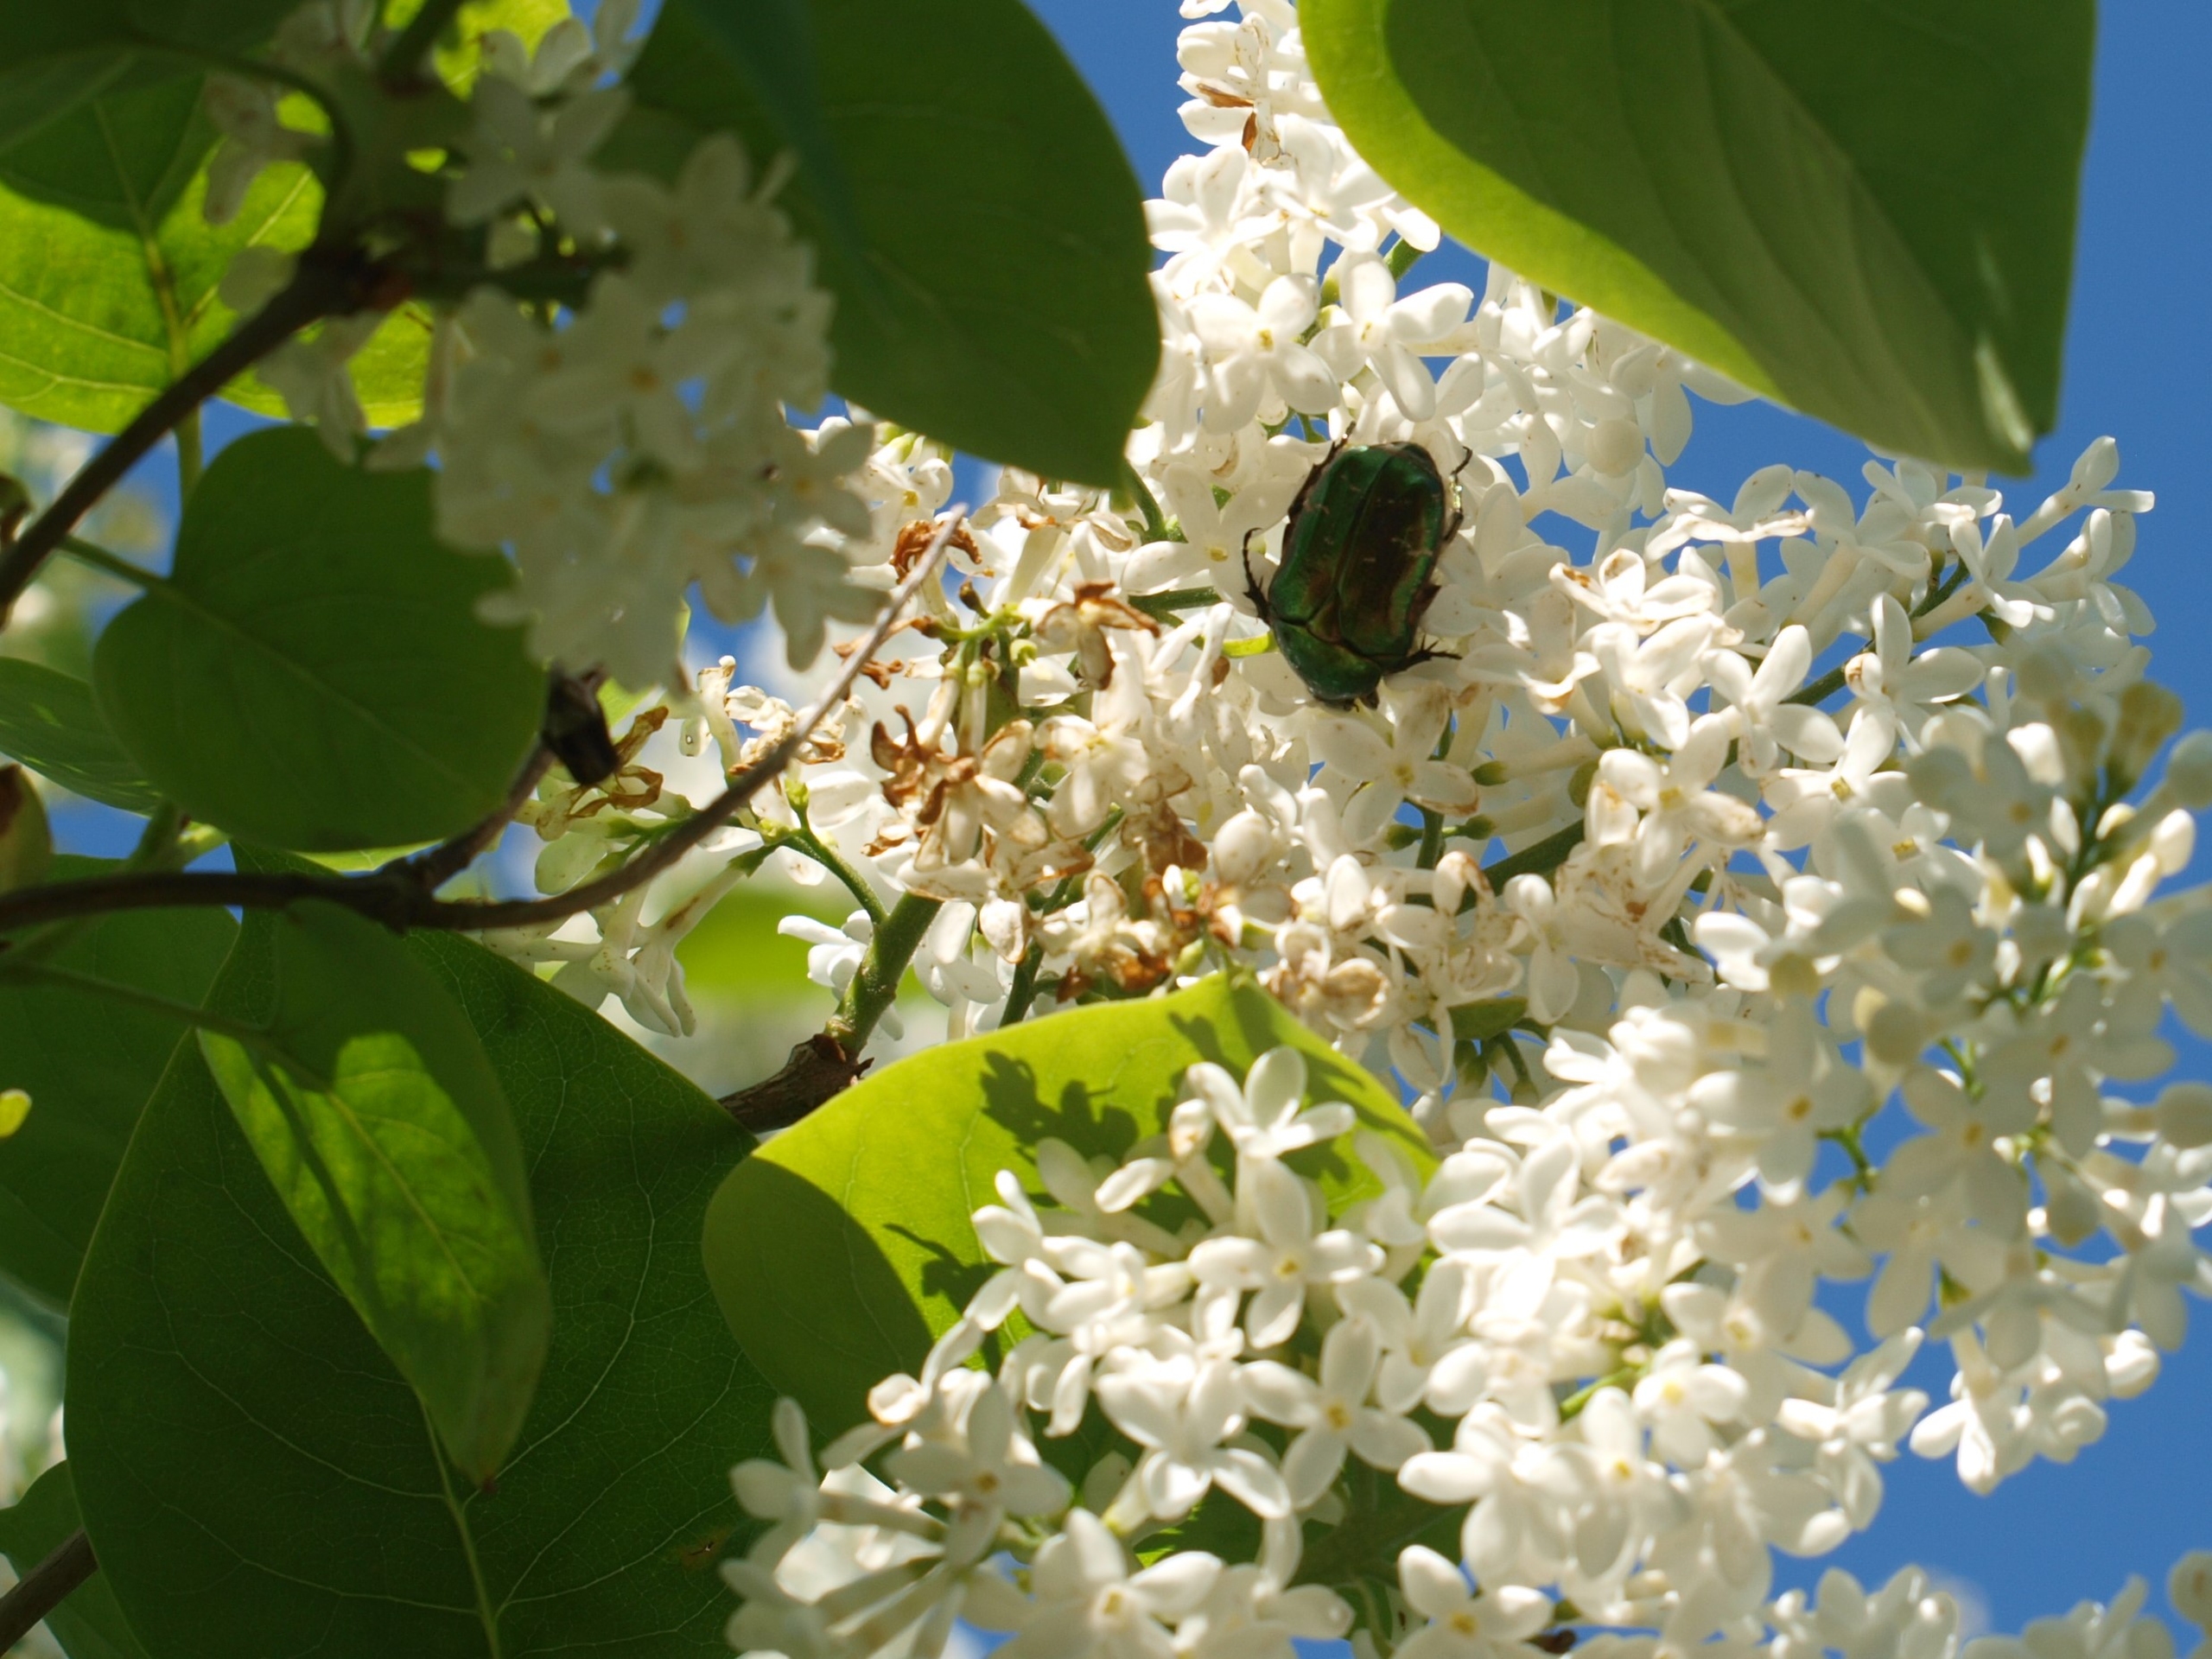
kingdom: Animalia
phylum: Arthropoda
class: Insecta
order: Coleoptera
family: Scarabaeidae
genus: Cetonia
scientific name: Cetonia aurata
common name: Grøn guldbasse
